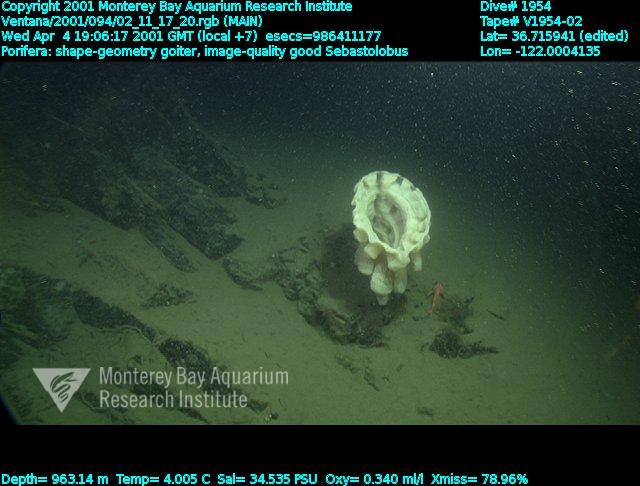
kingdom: Animalia
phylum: Porifera
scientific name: Porifera
